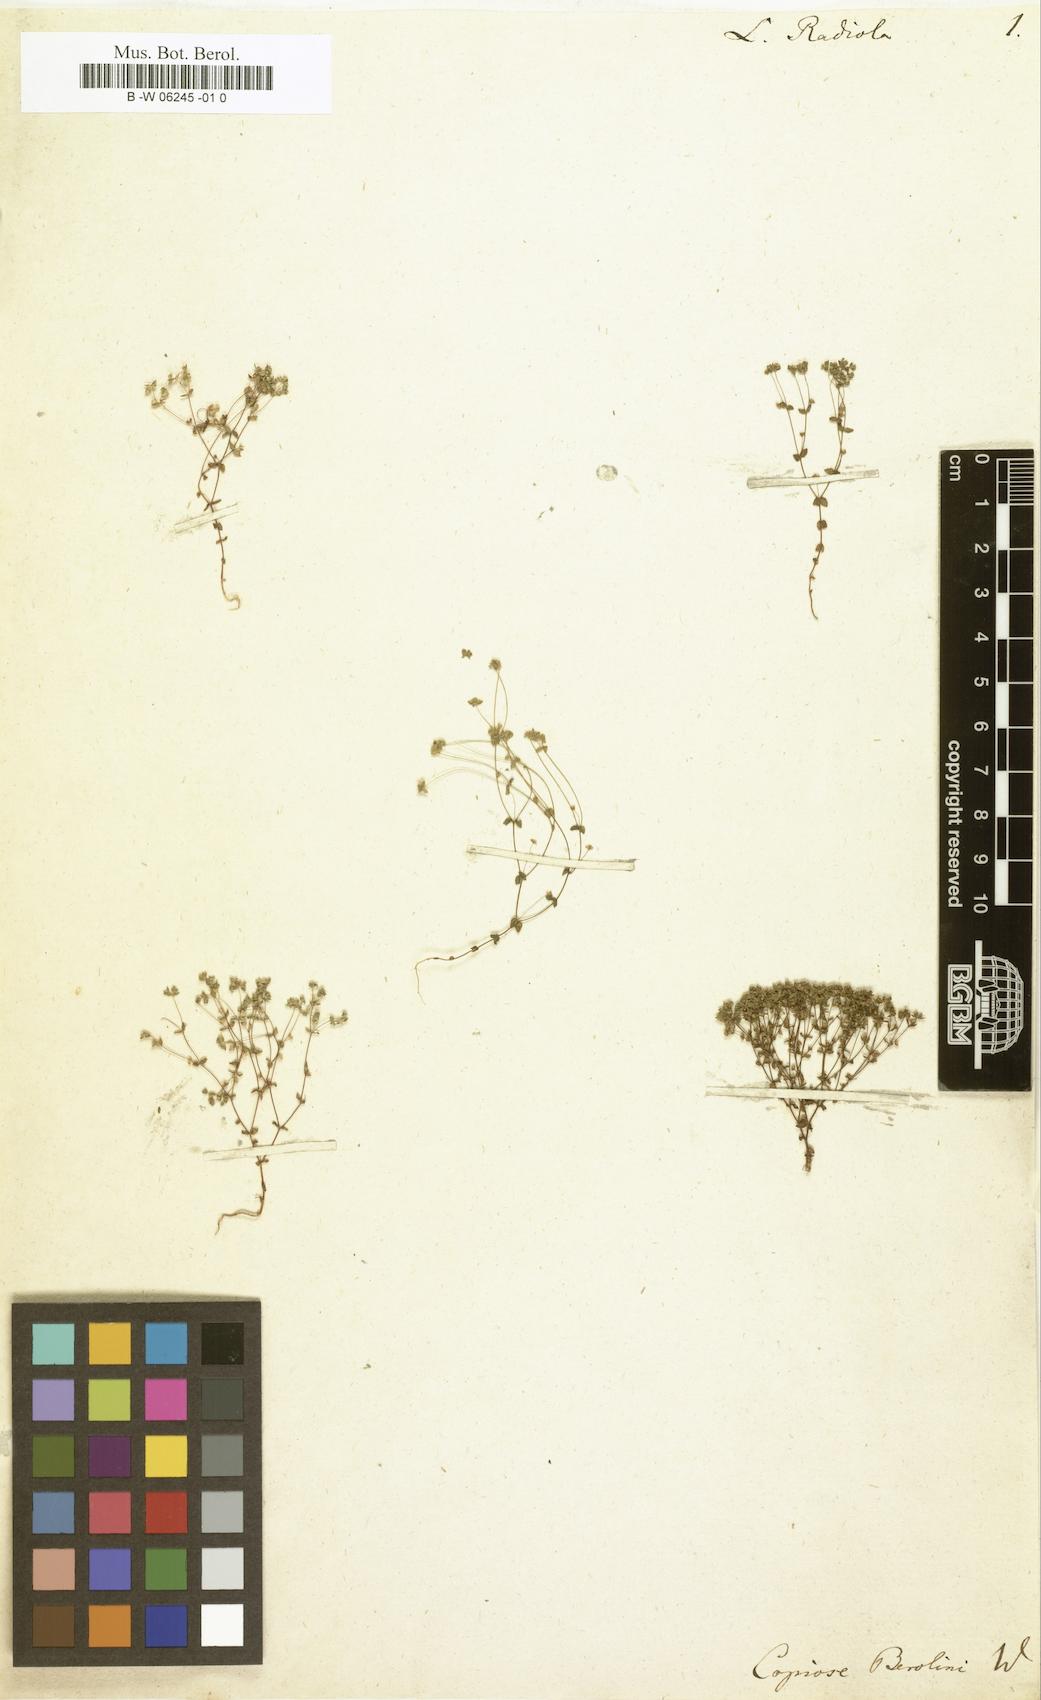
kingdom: Plantae
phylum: Tracheophyta
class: Magnoliopsida
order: Malpighiales
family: Linaceae
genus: Radiola
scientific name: Radiola linoides
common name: Allseed
